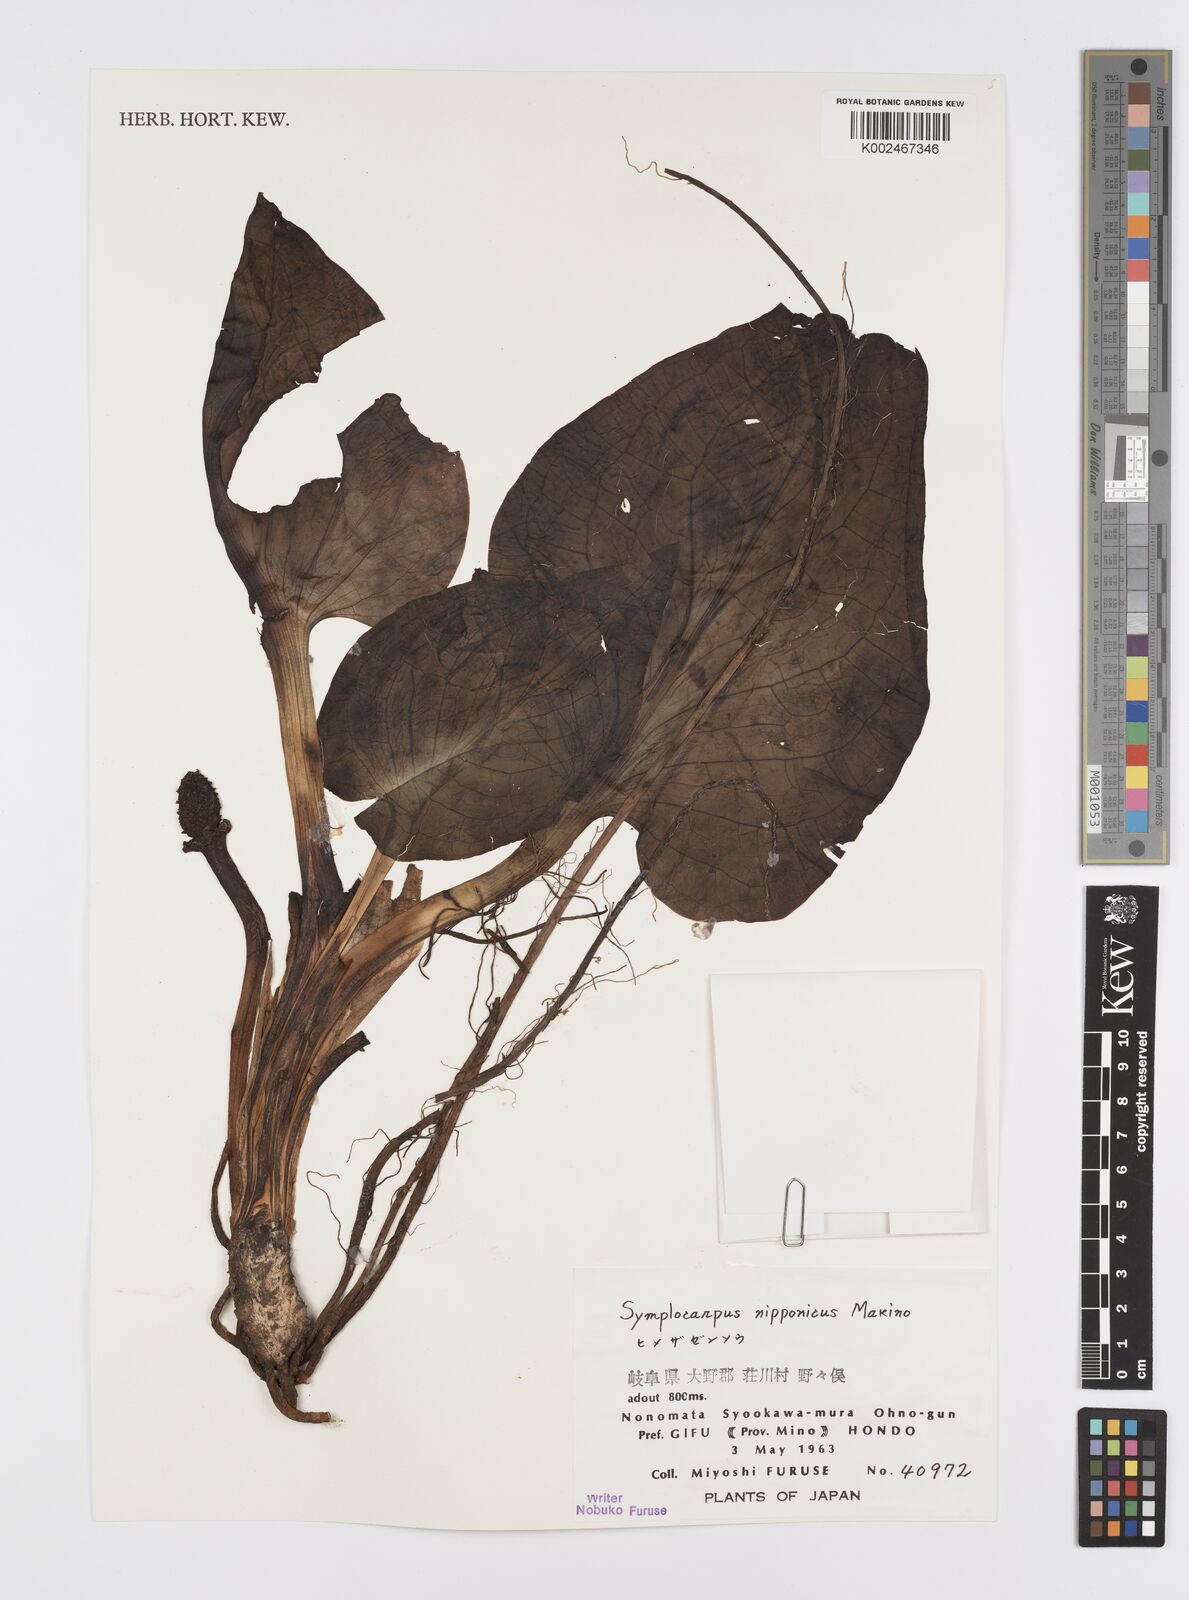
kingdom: Plantae
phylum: Tracheophyta
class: Liliopsida
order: Alismatales
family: Araceae
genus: Symplocarpus
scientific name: Symplocarpus nipponicus
